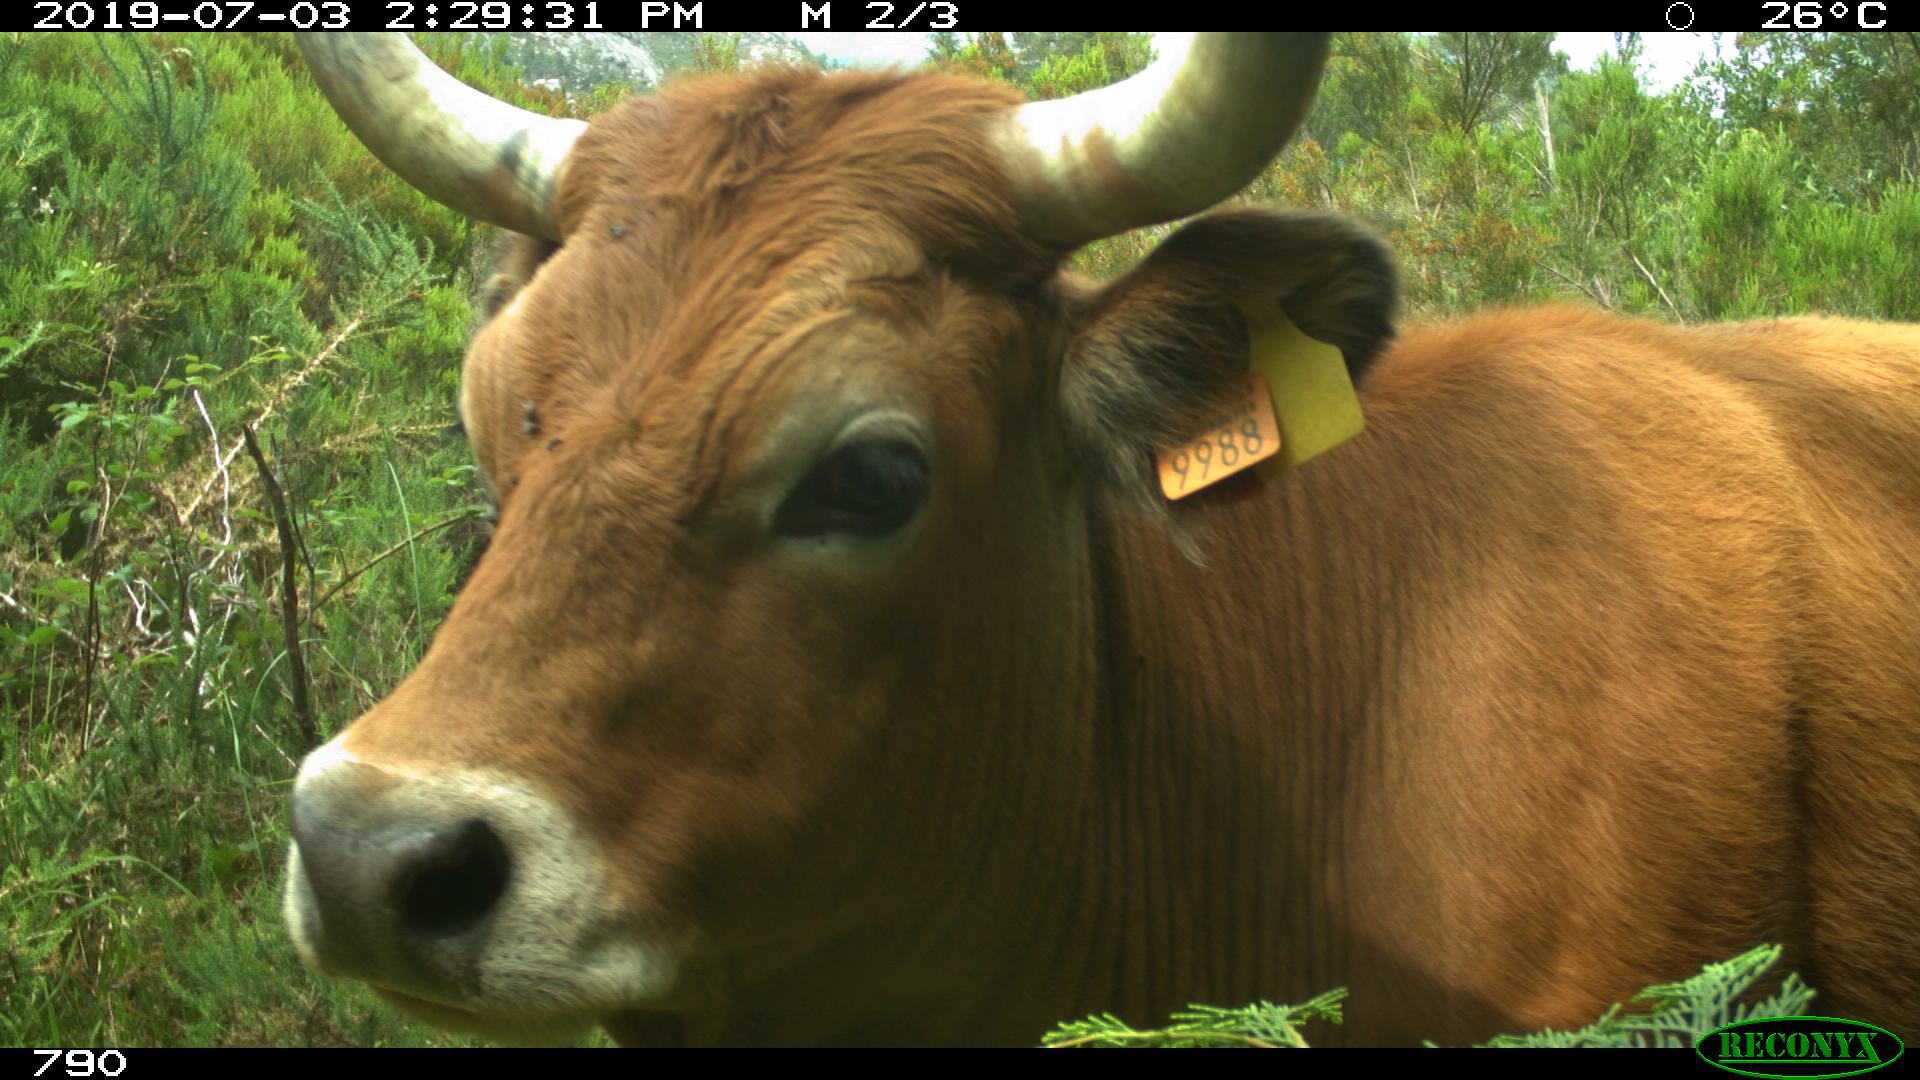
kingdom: Animalia
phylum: Chordata
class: Mammalia
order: Artiodactyla
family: Bovidae
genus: Bos
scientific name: Bos taurus
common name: Domesticated cattle
